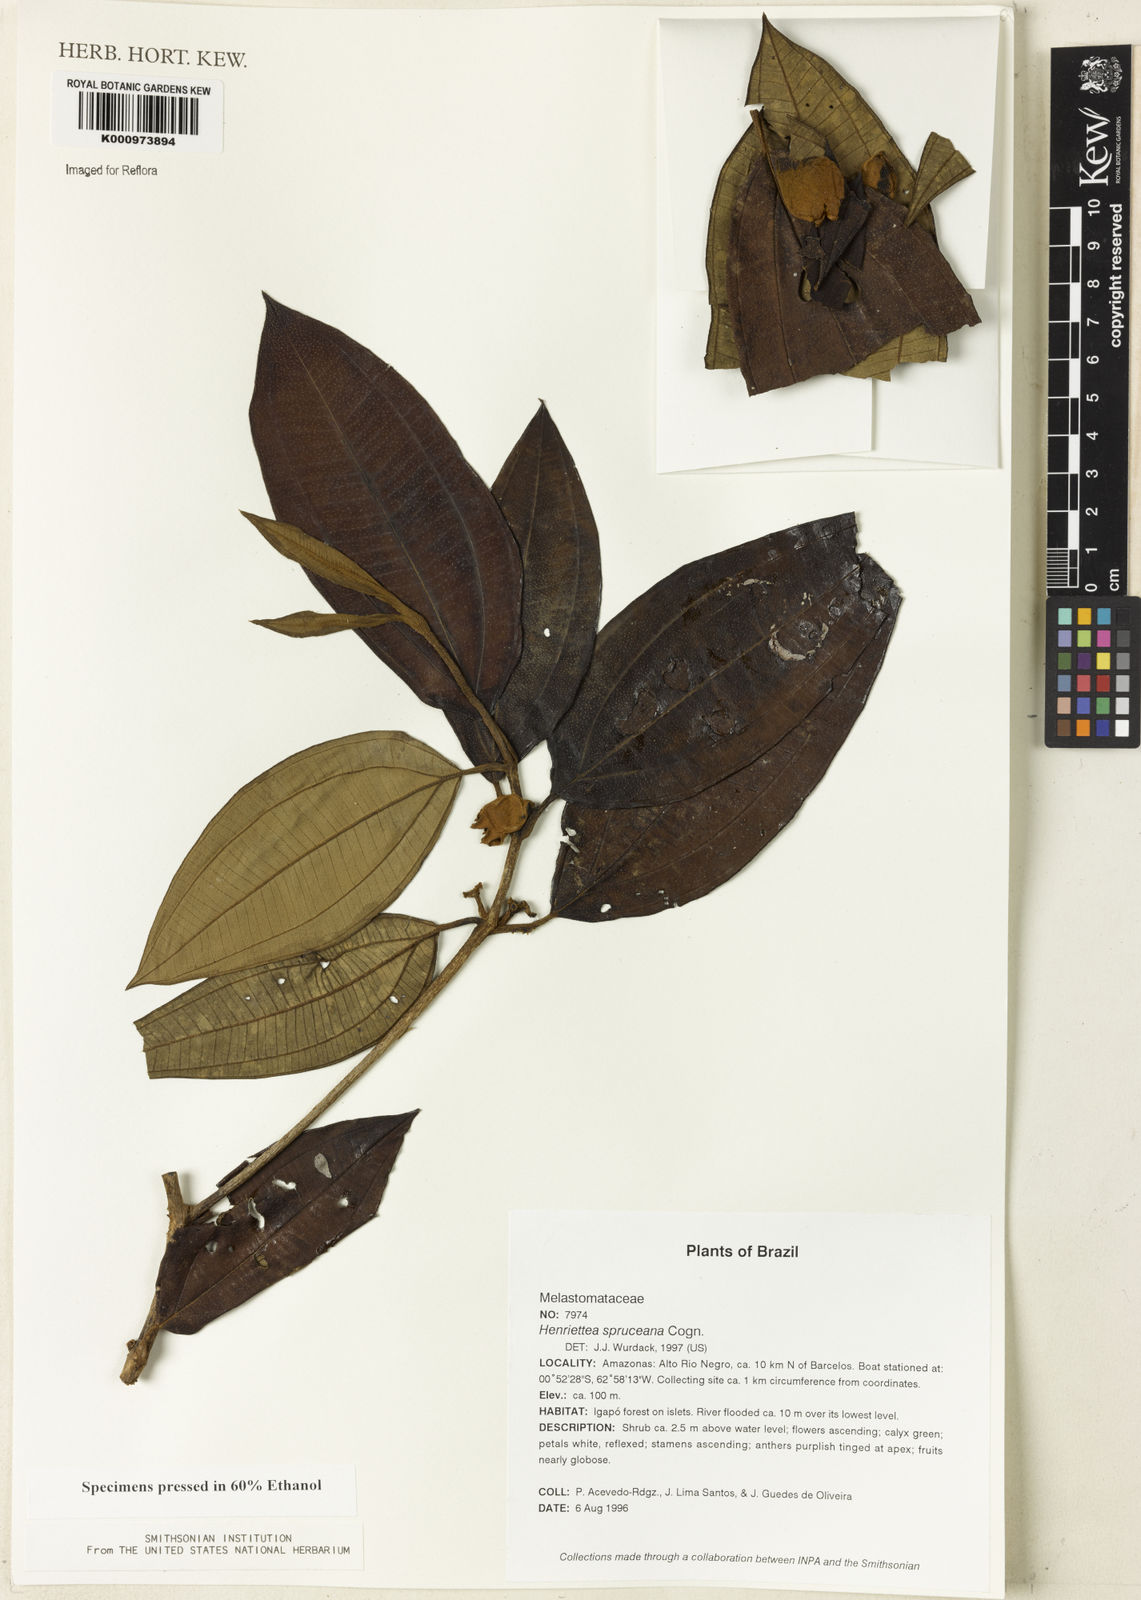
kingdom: Plantae
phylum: Tracheophyta
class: Magnoliopsida
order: Myrtales
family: Melastomataceae
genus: Henriettea
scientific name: Henriettea spruceana
